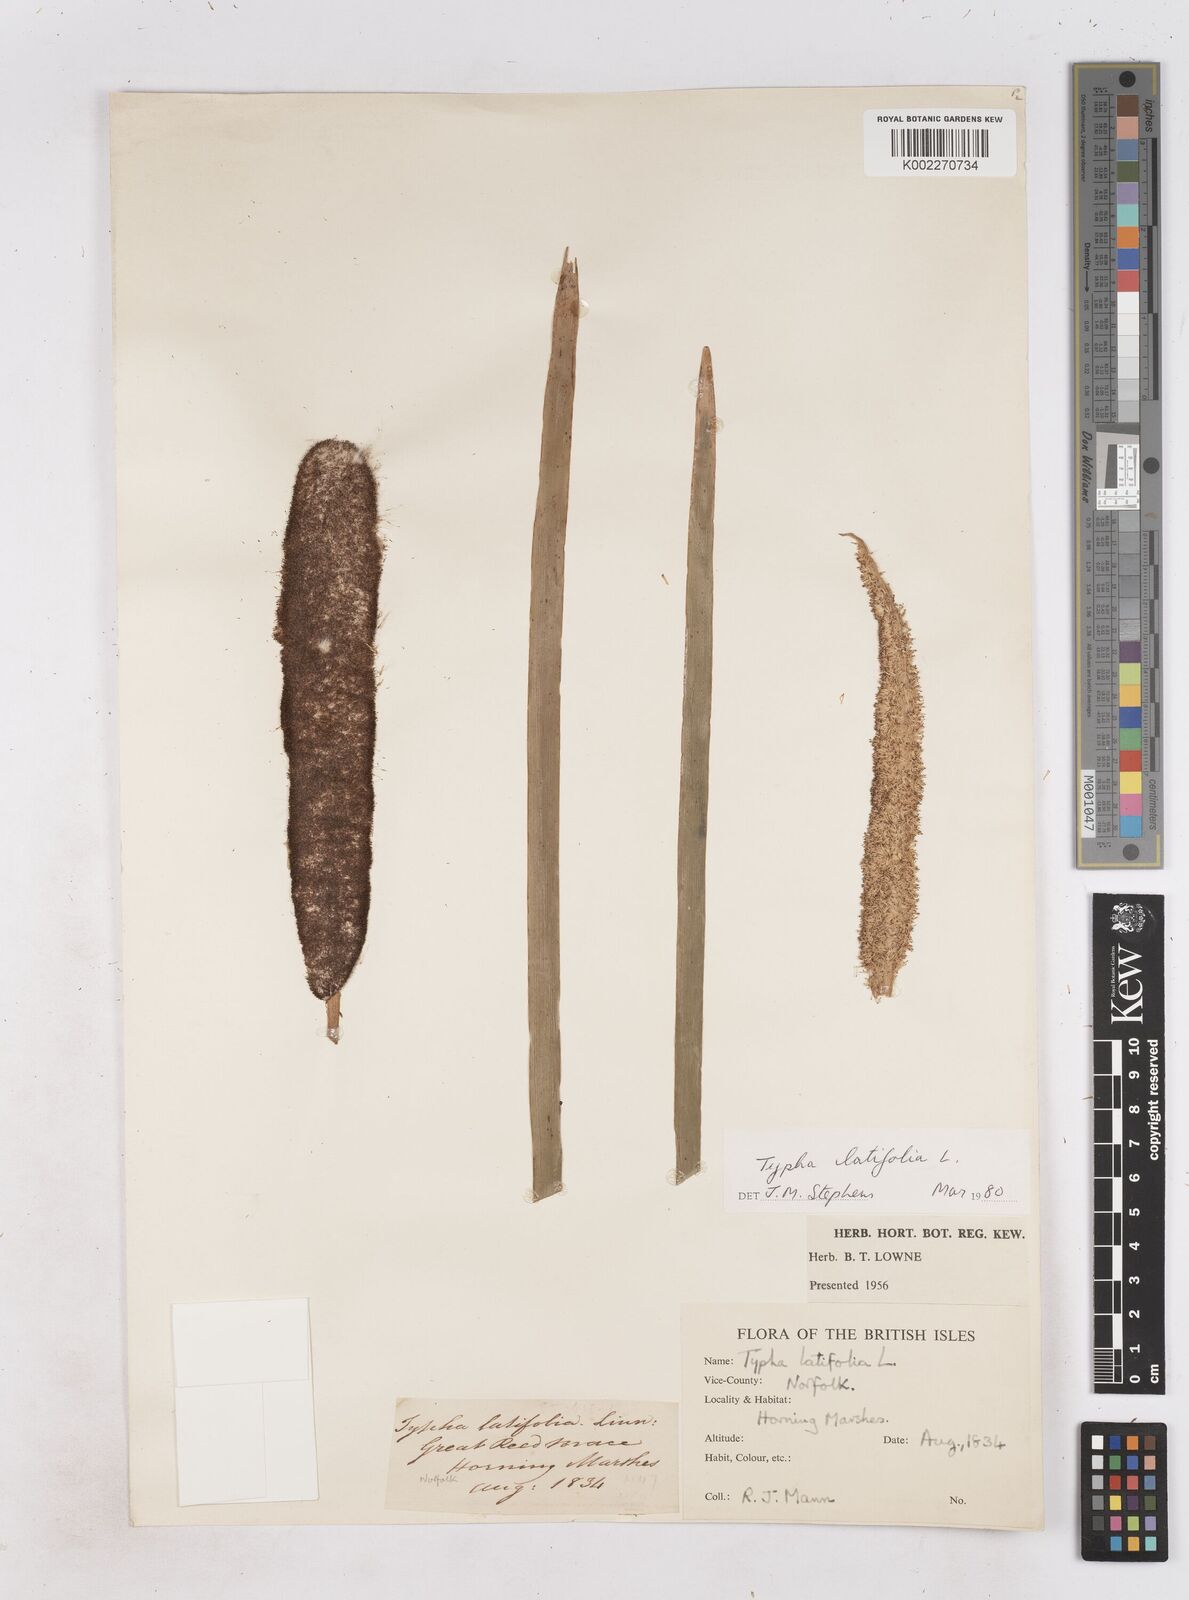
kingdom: Plantae
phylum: Tracheophyta
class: Liliopsida
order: Poales
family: Typhaceae
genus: Typha
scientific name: Typha latifolia
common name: Broadleaf cattail
